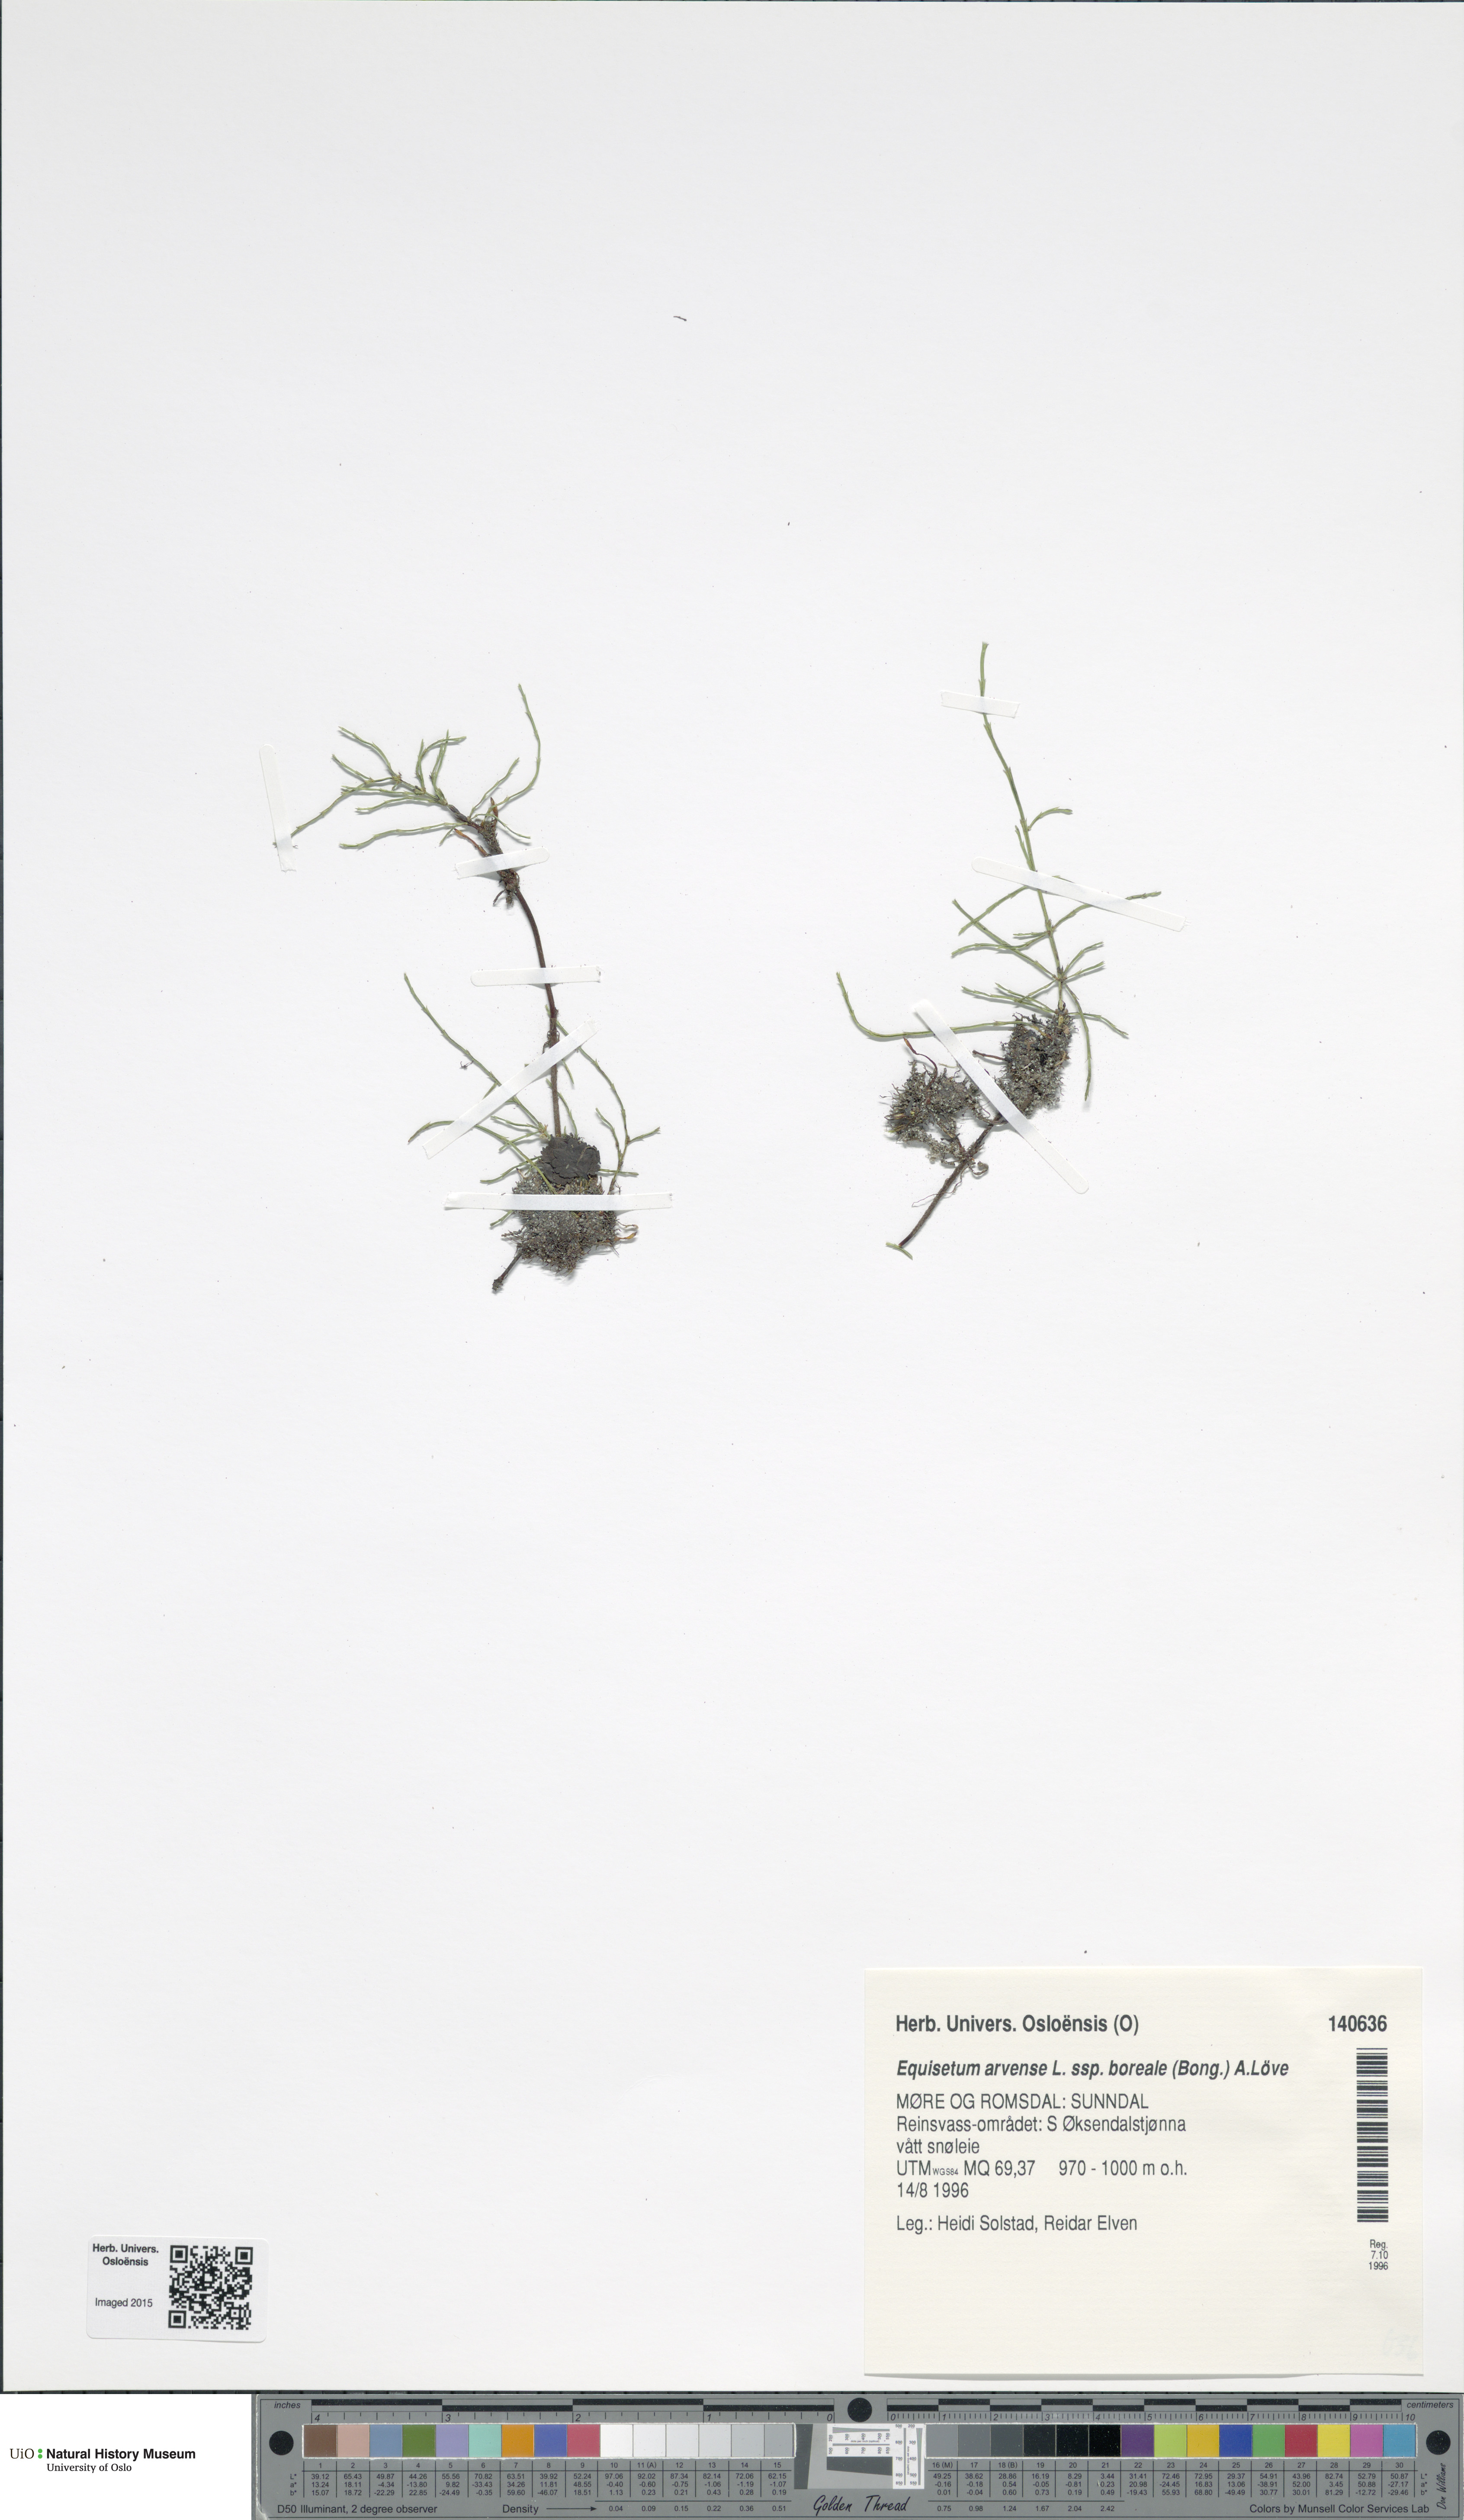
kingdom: Plantae
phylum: Tracheophyta
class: Polypodiopsida
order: Equisetales
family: Equisetaceae
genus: Equisetum
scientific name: Equisetum arvense
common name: Field horsetail
